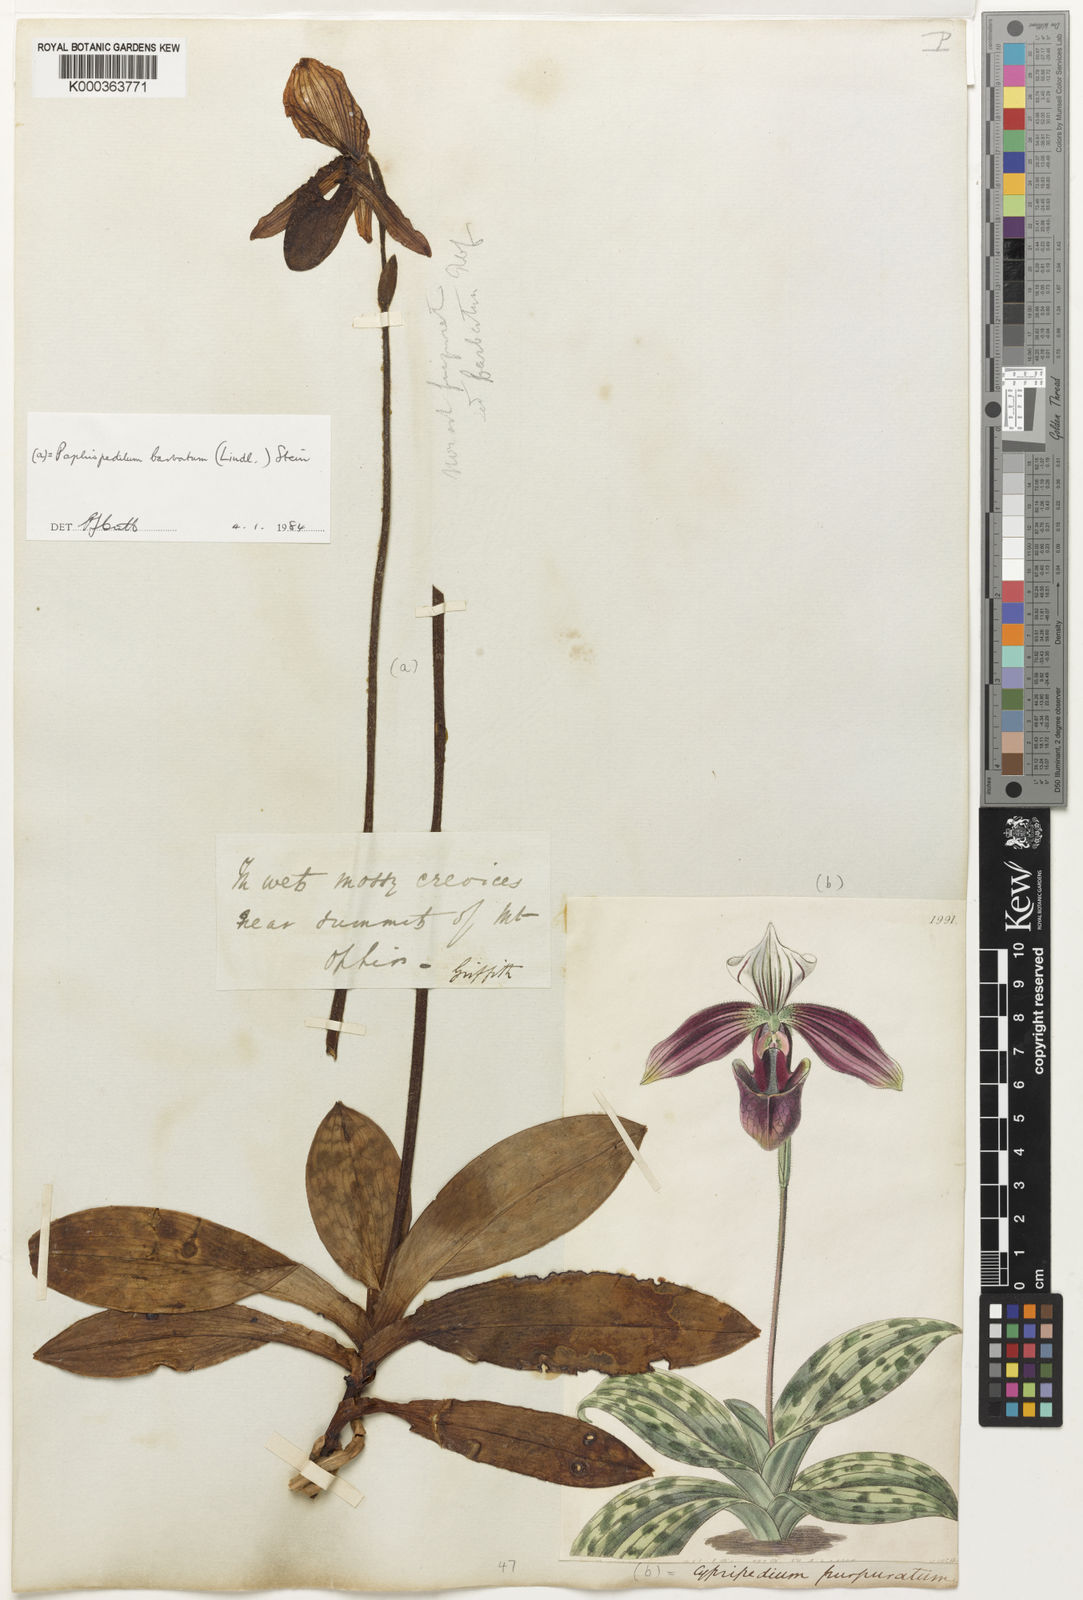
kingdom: Plantae
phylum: Tracheophyta
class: Liliopsida
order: Asparagales
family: Orchidaceae
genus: Paphiopedilum
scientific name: Paphiopedilum barbatum
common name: Bearded paphiopedilum
